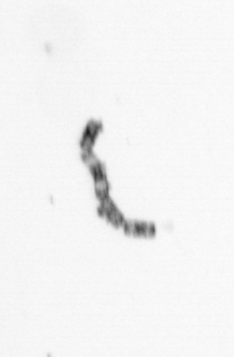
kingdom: Chromista
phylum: Ochrophyta
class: Bacillariophyceae
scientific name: Bacillariophyceae
